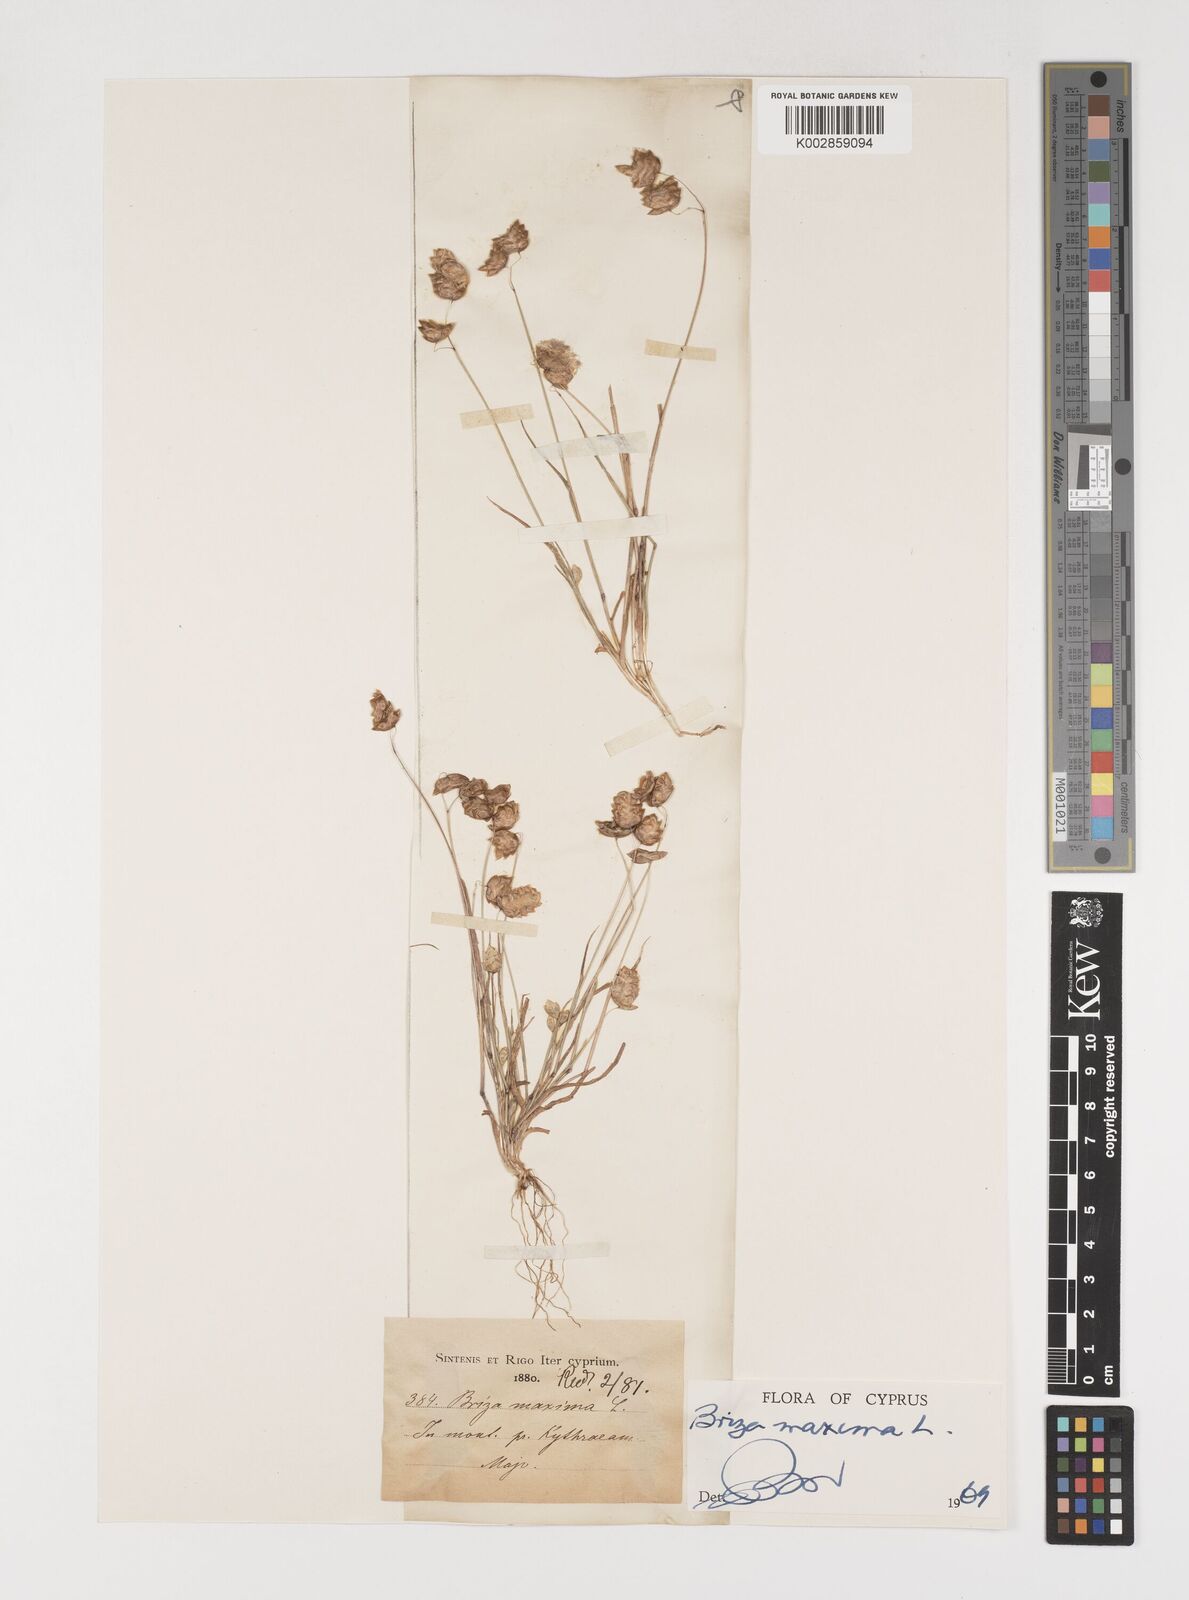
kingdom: Plantae
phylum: Tracheophyta
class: Liliopsida
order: Poales
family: Poaceae
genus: Briza
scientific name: Briza maxima
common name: Big quakinggrass
